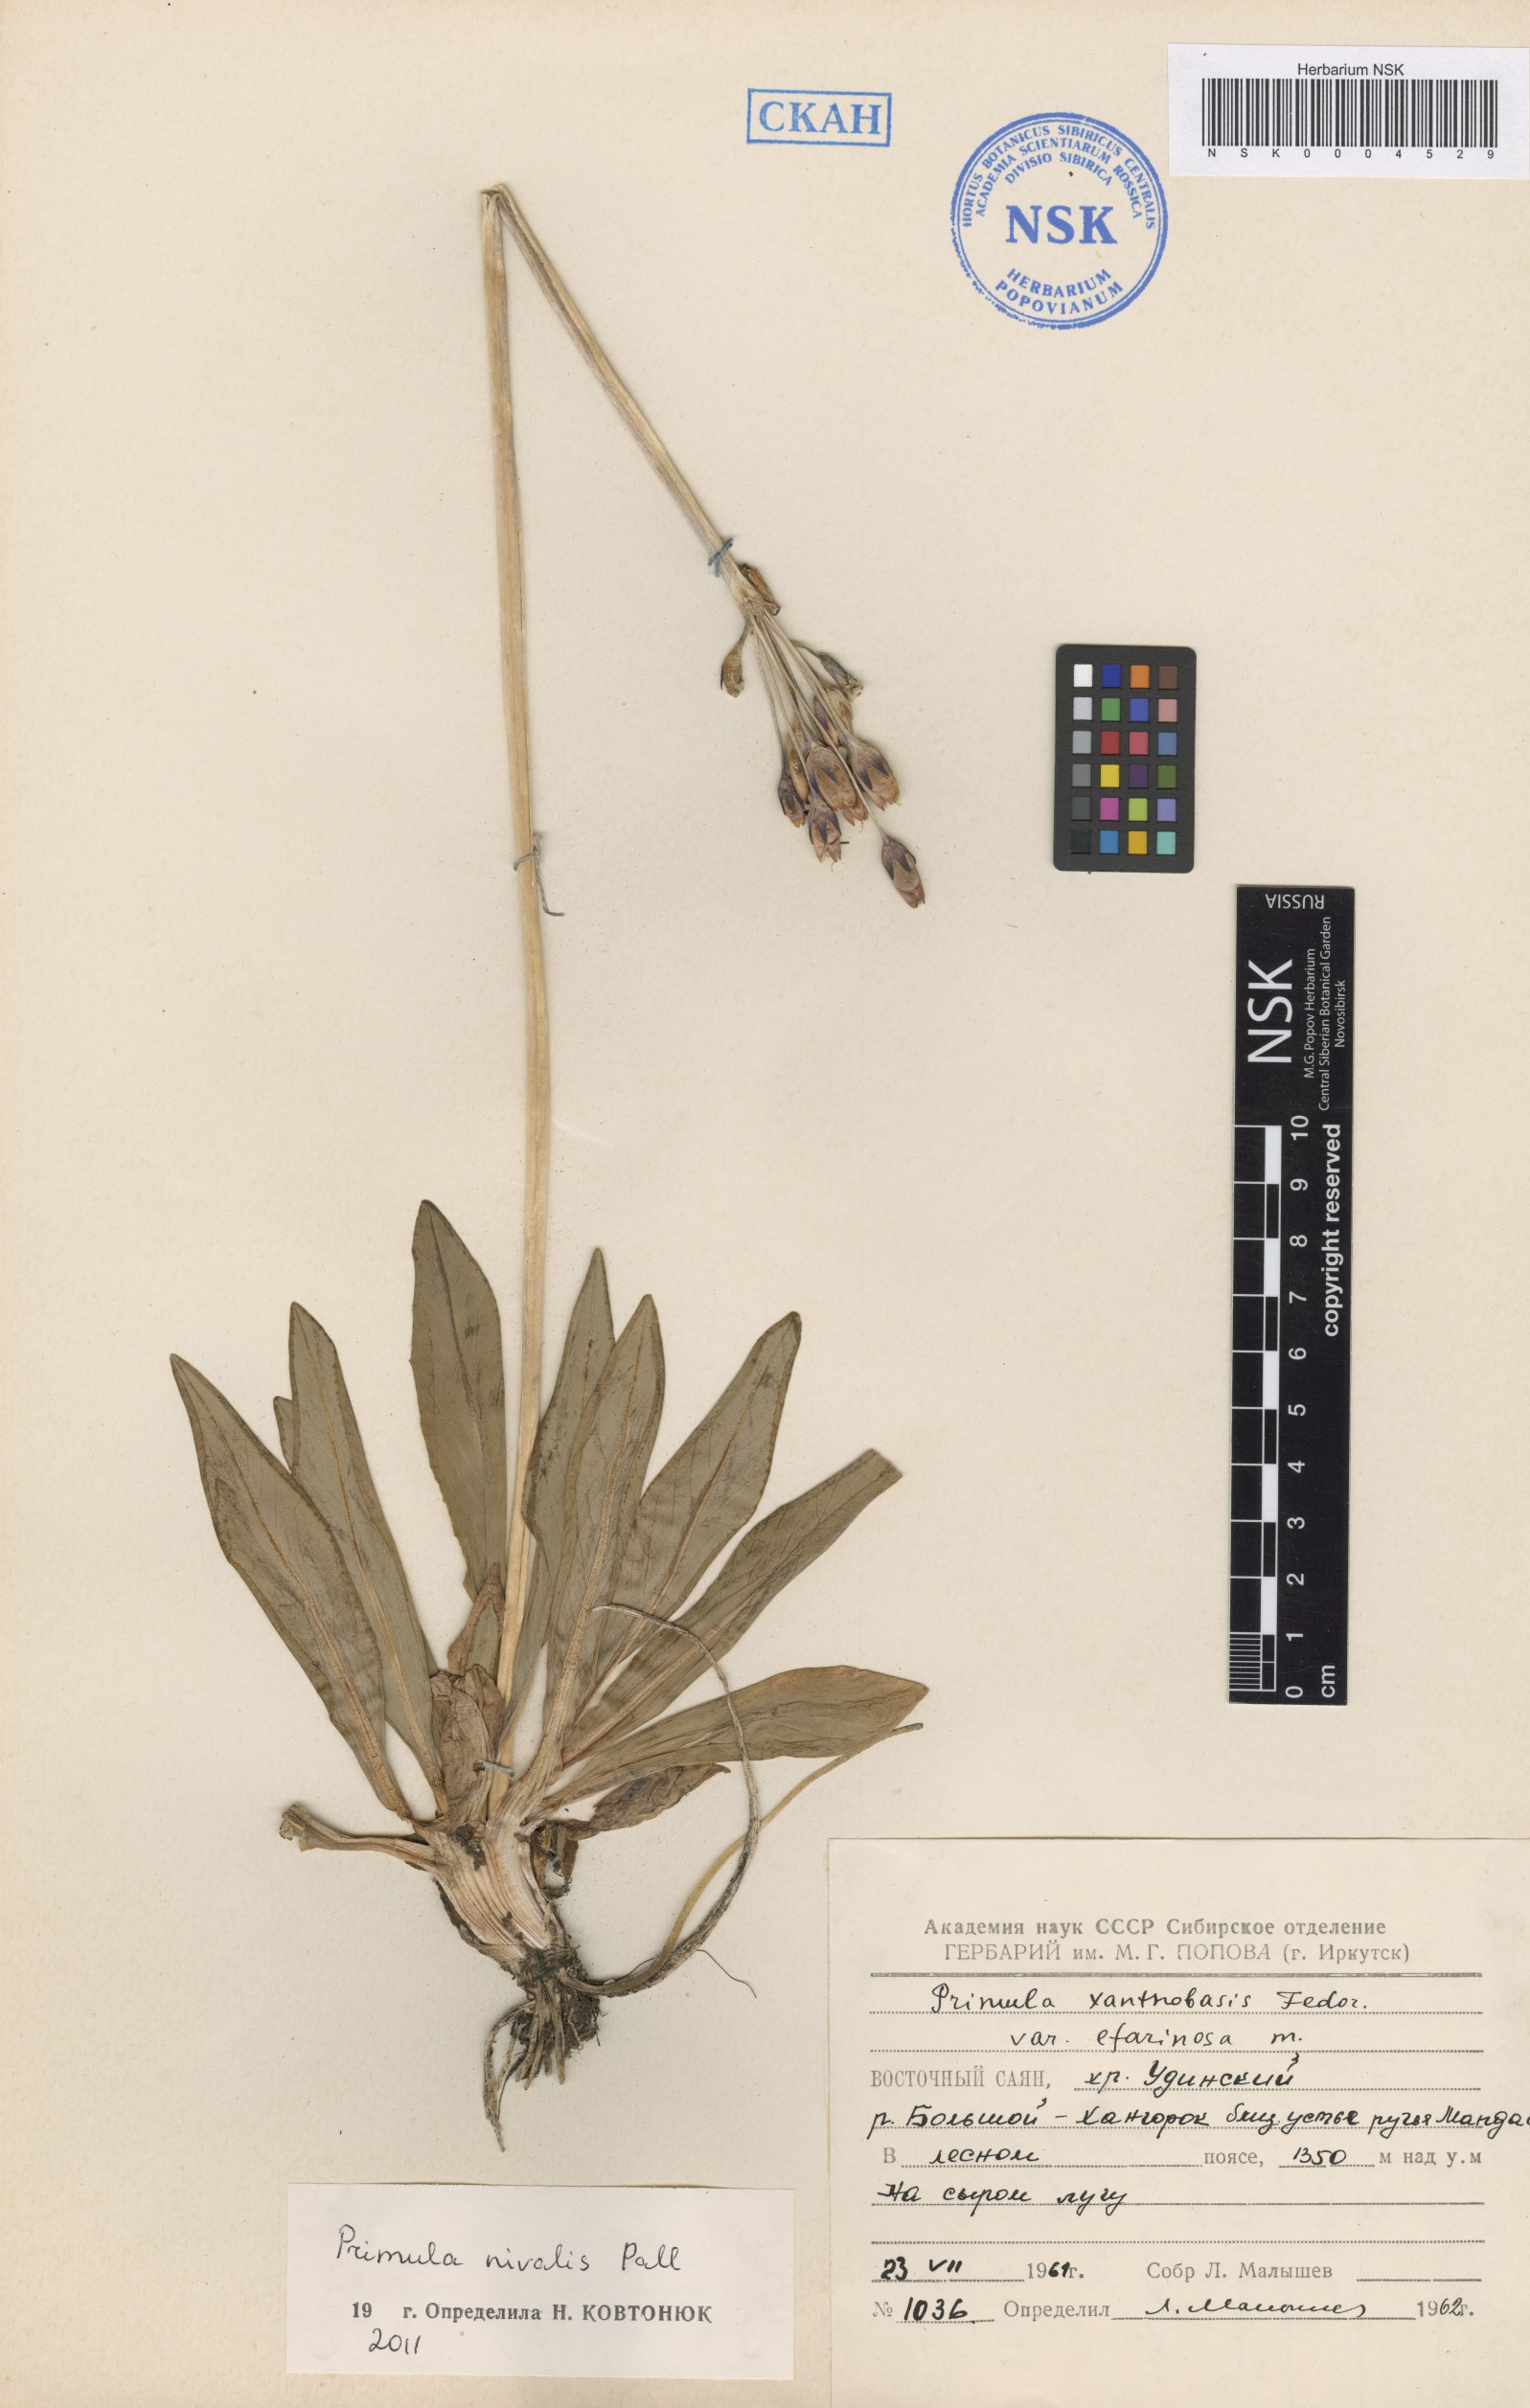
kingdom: Plantae
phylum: Tracheophyta
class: Magnoliopsida
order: Ericales
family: Primulaceae
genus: Primula
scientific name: Primula nivalis
